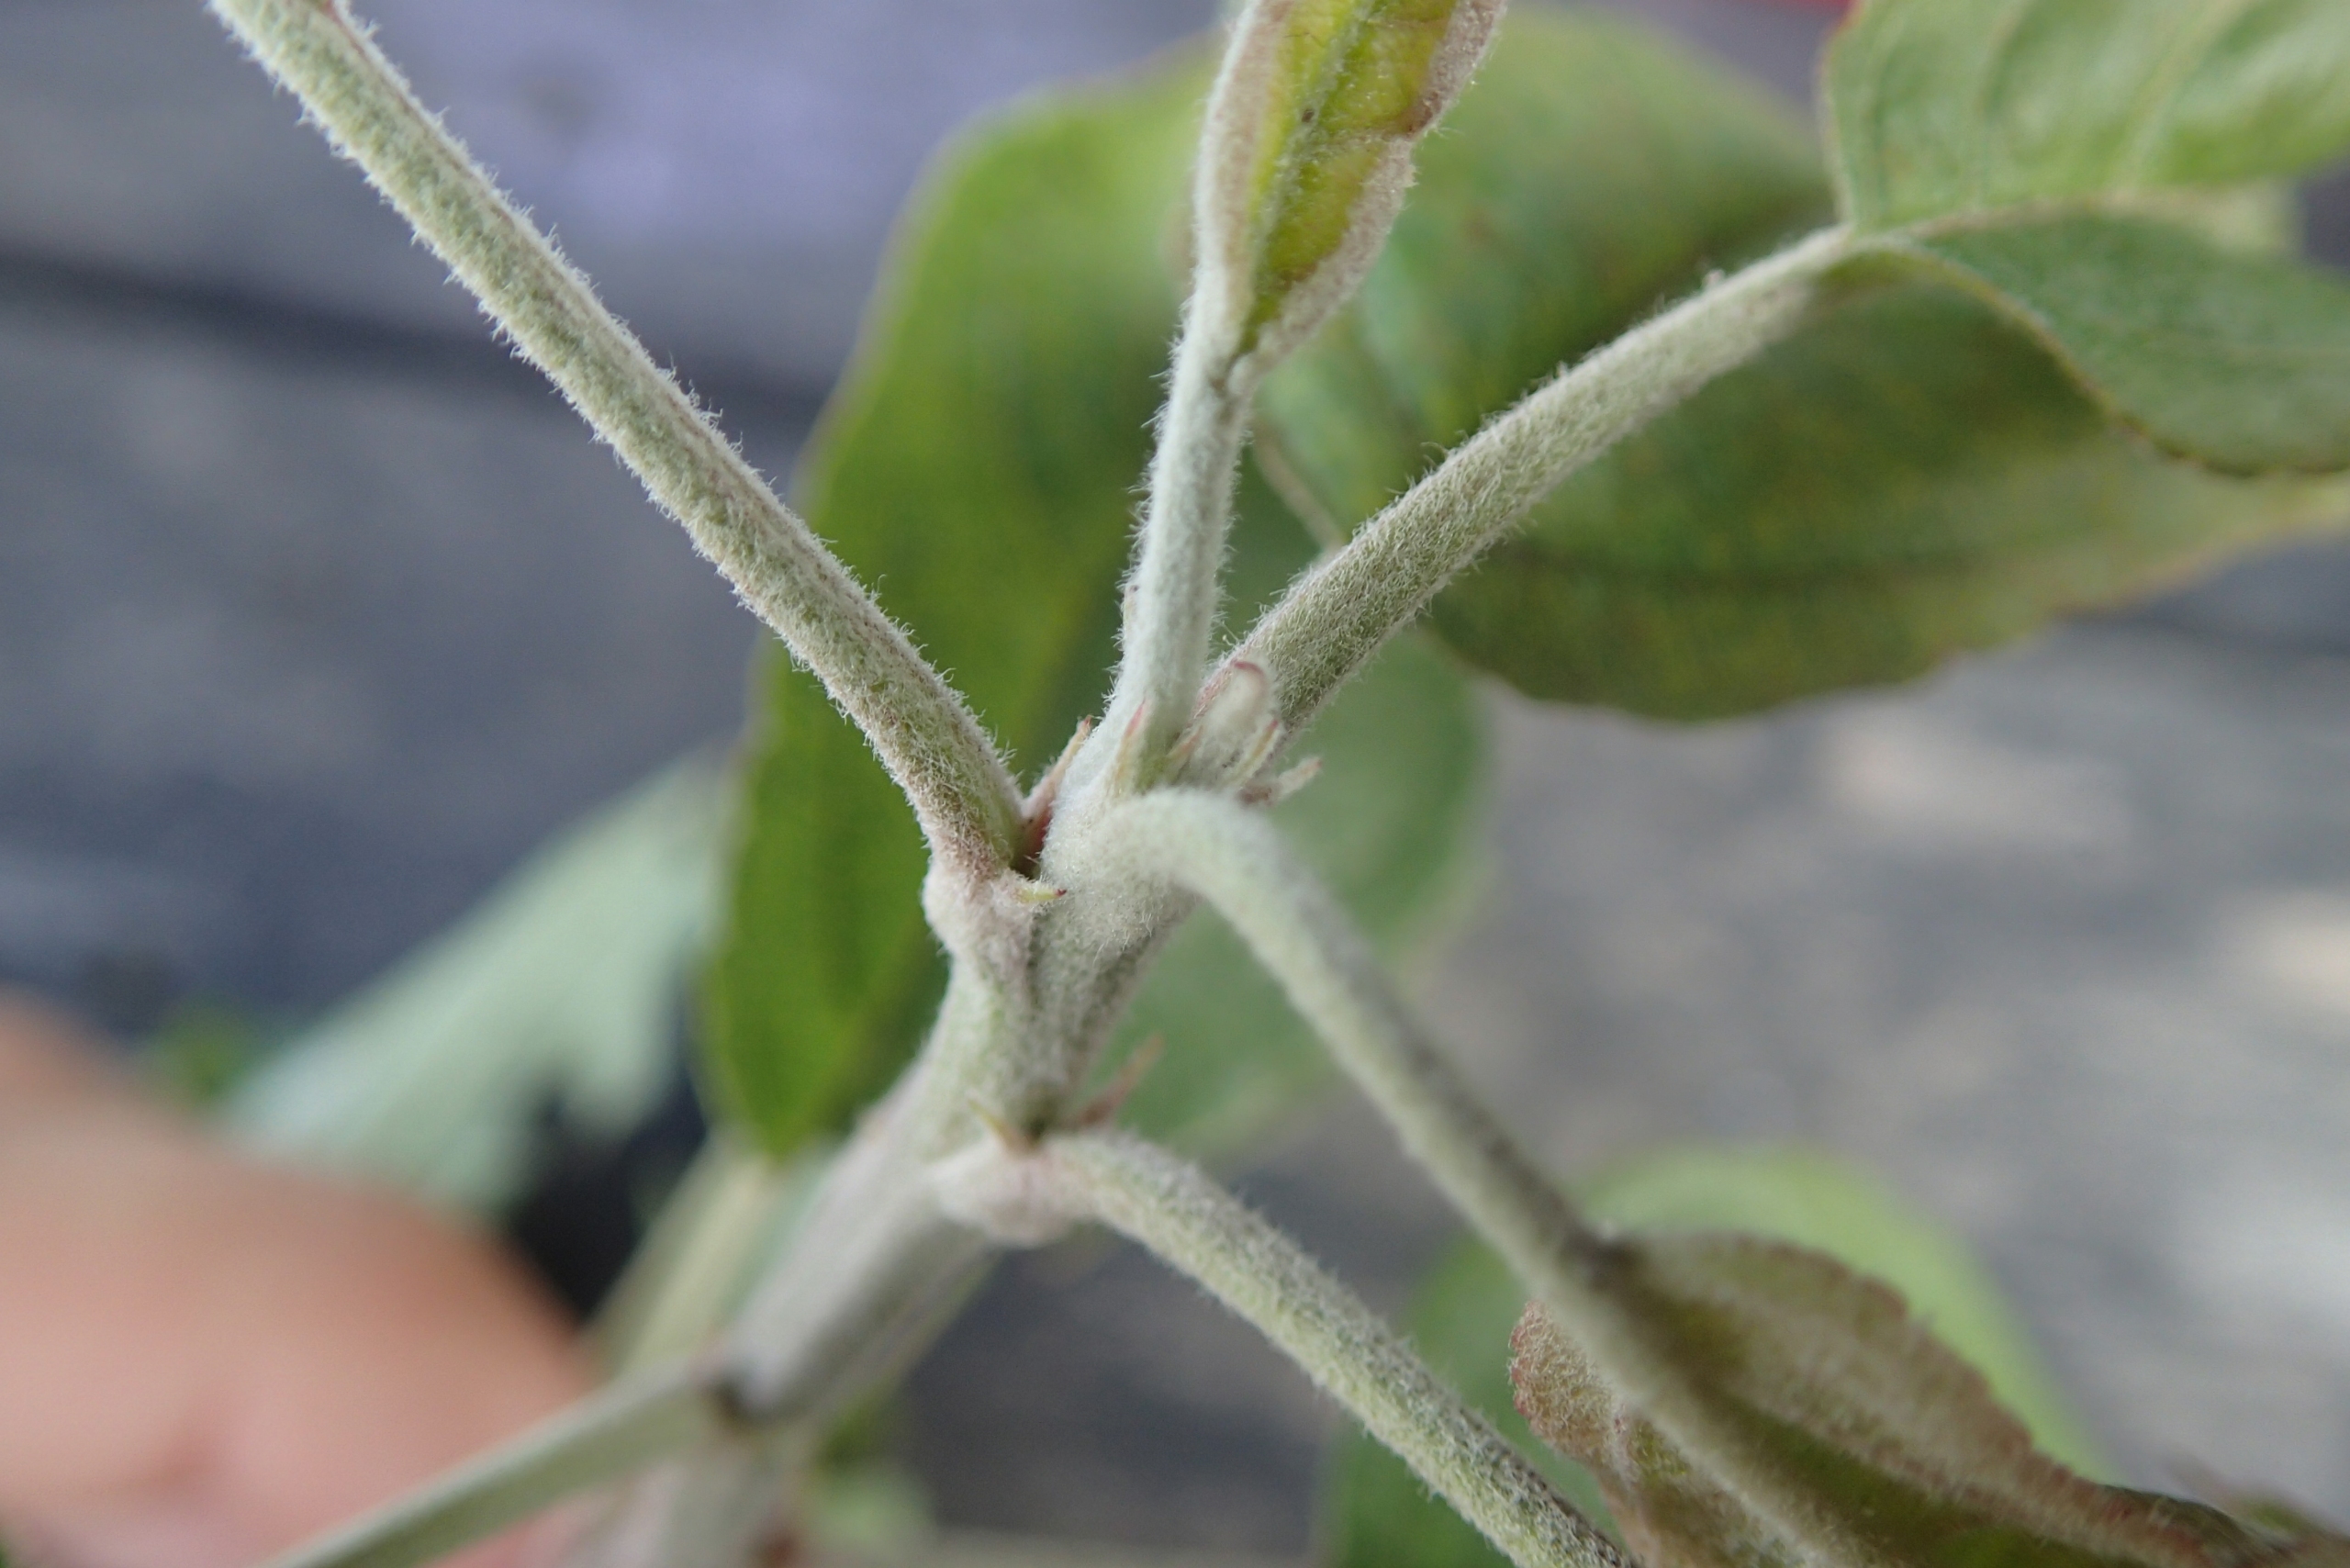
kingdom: Plantae
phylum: Tracheophyta
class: Magnoliopsida
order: Rosales
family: Rosaceae
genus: Malus
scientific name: Malus domestica
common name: Sød-æble
